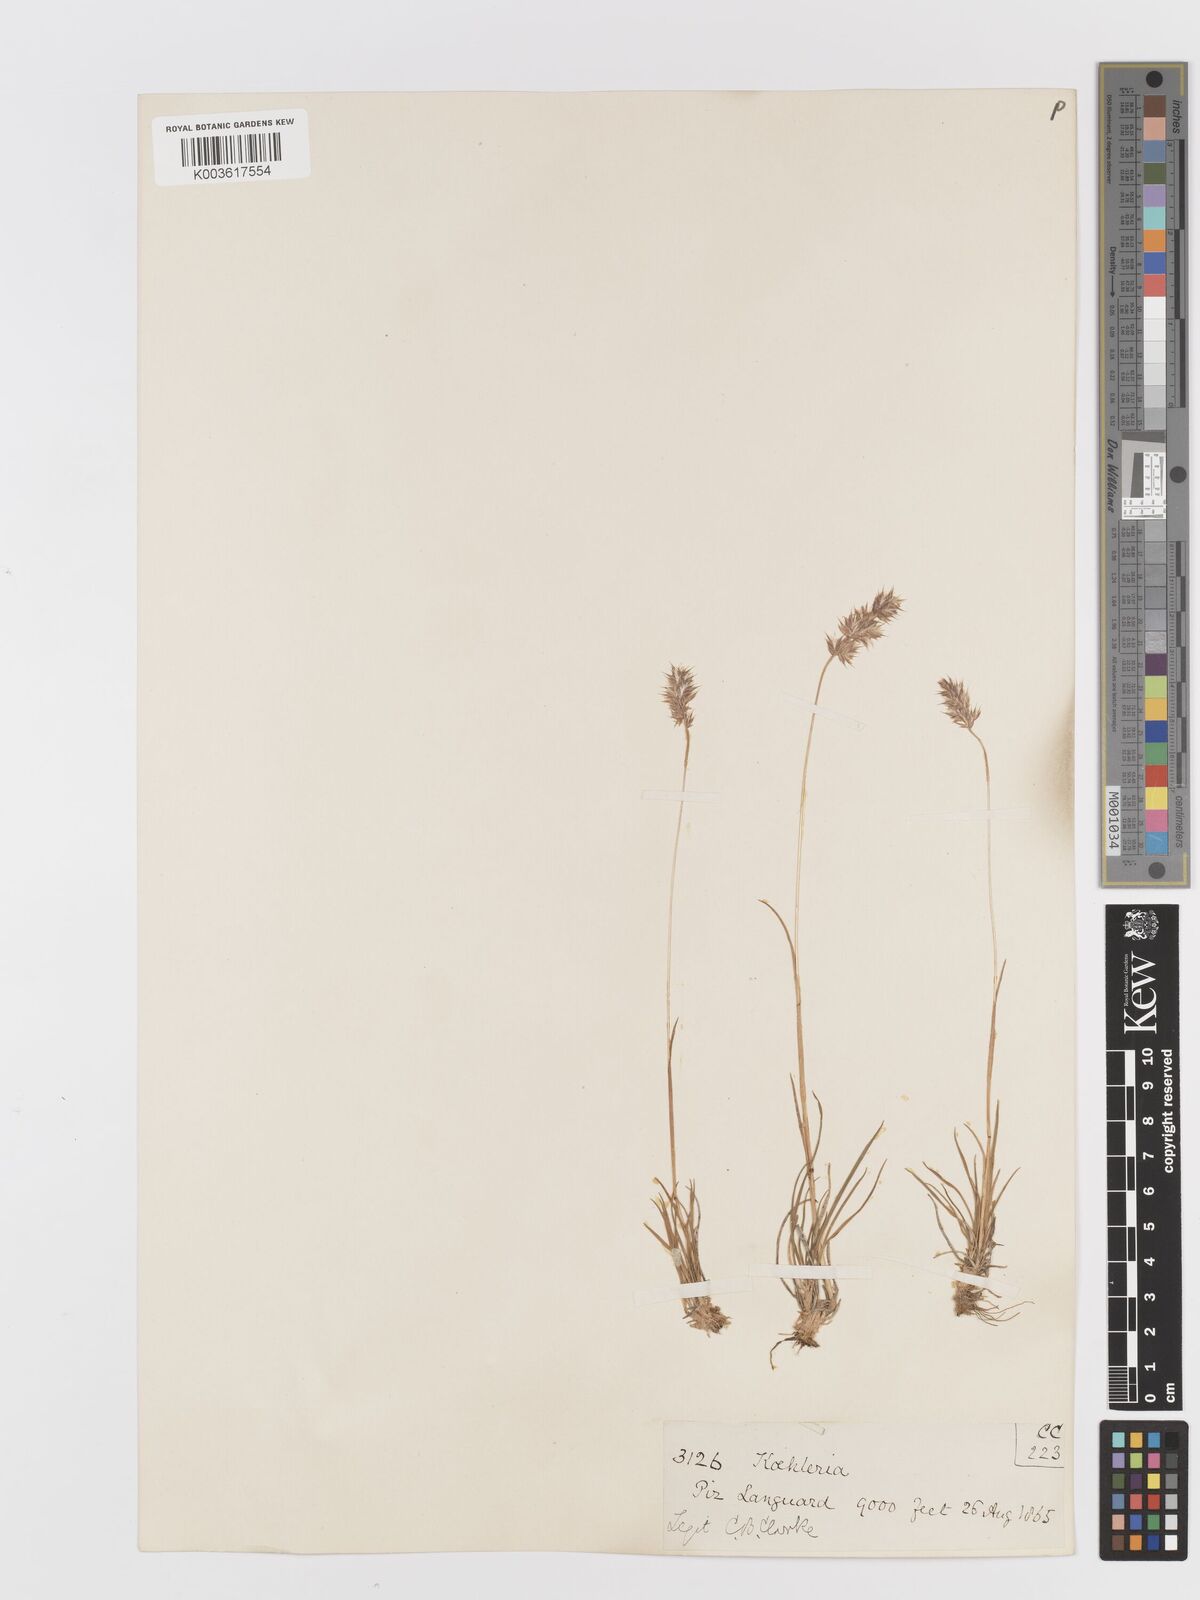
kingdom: Plantae
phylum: Tracheophyta
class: Liliopsida
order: Poales
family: Poaceae
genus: Koeleria
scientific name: Koeleria
